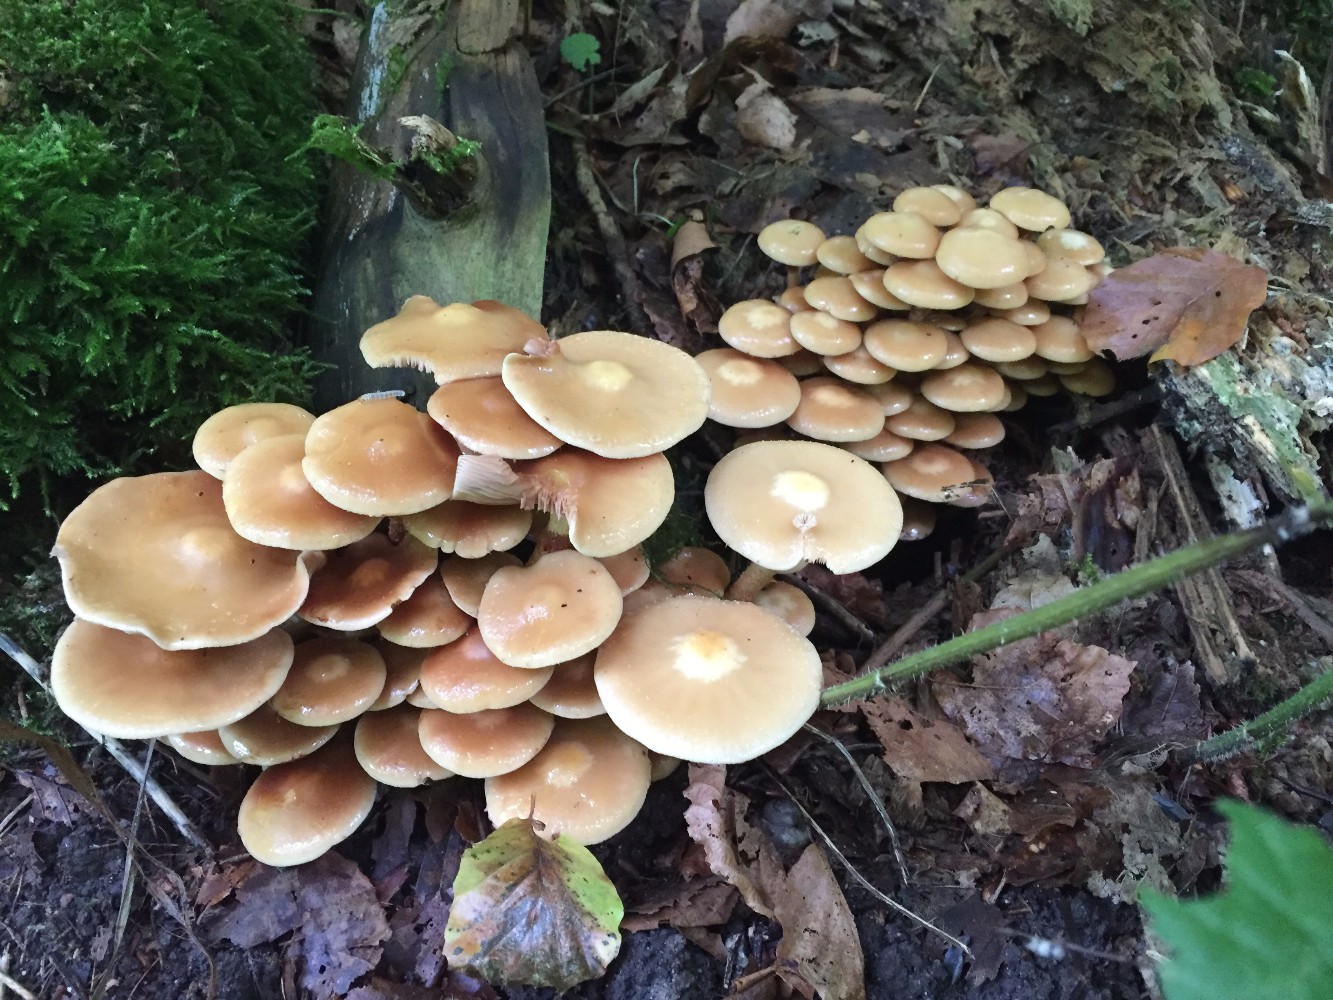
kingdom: Fungi
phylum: Basidiomycota
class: Agaricomycetes
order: Agaricales
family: Strophariaceae
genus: Kuehneromyces
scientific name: Kuehneromyces mutabilis
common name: foranderlig skælhat
